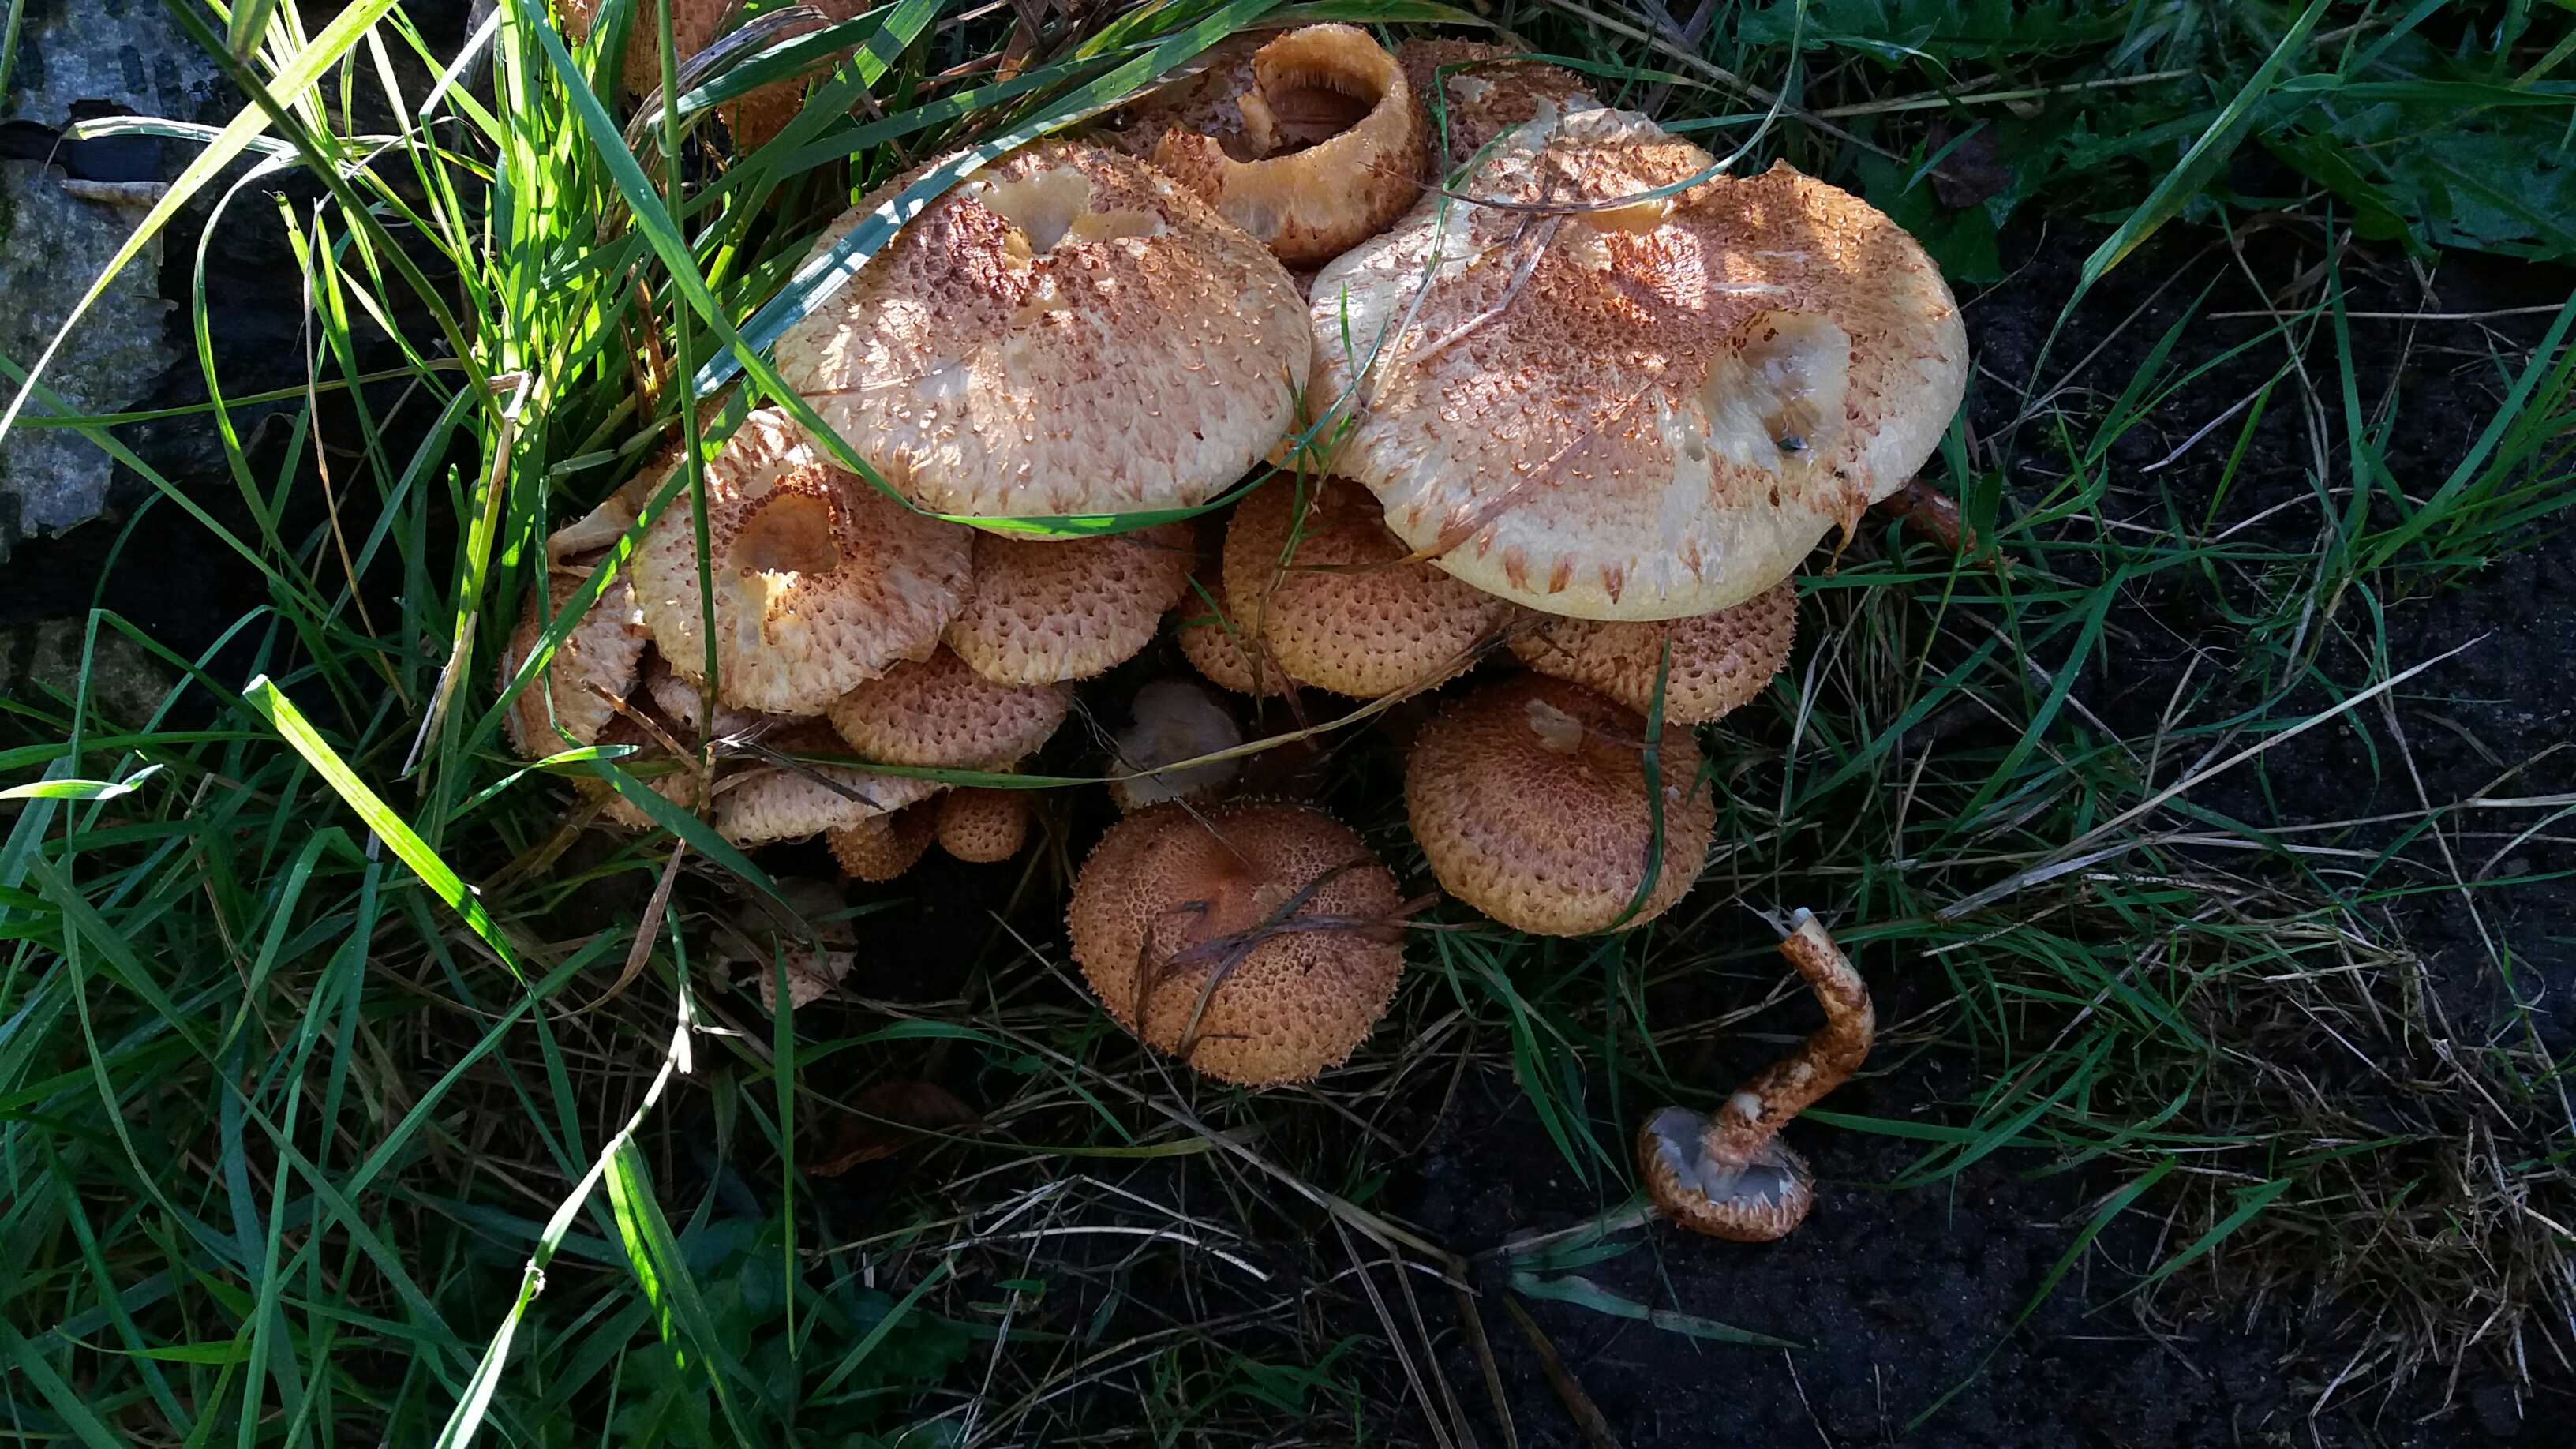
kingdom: Fungi
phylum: Basidiomycota
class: Agaricomycetes
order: Agaricales
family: Strophariaceae
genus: Pholiota
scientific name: Pholiota squarrosa
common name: krumskællet skælhat
